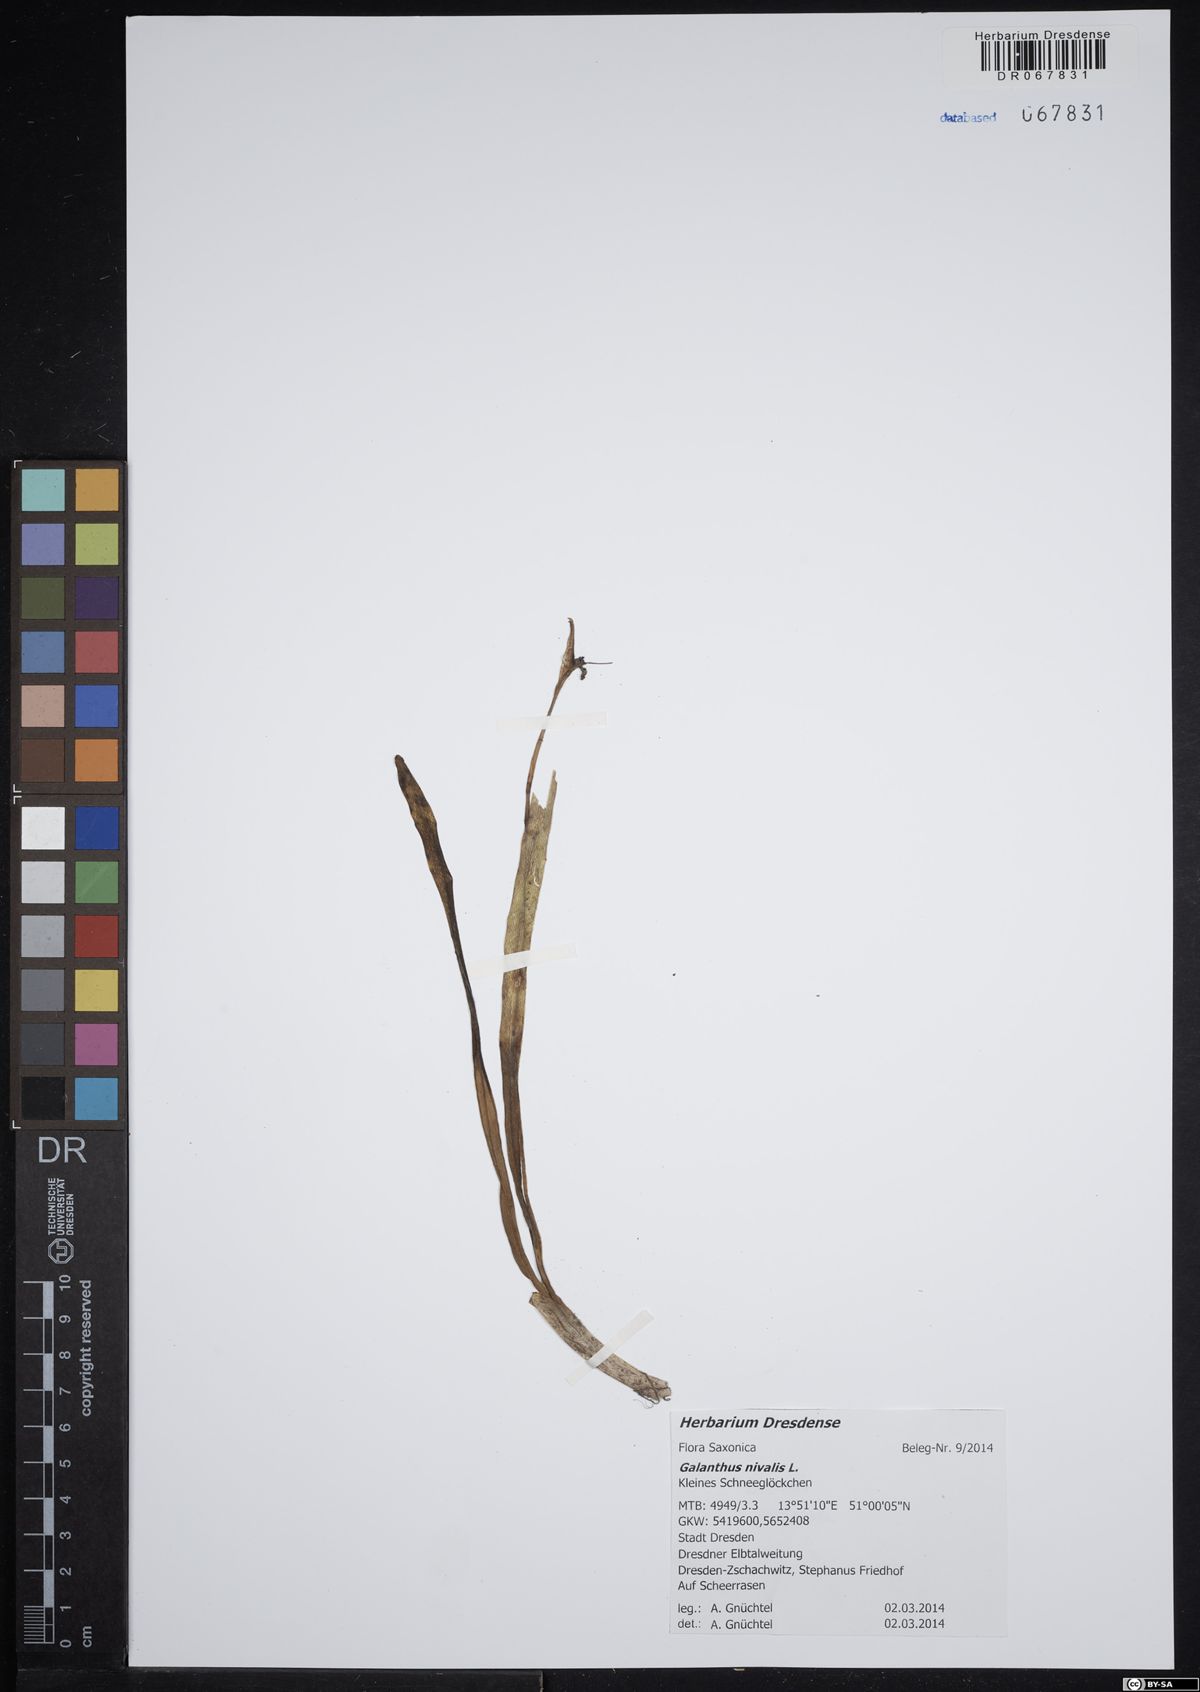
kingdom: Plantae
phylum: Tracheophyta
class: Liliopsida
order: Asparagales
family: Amaryllidaceae
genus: Galanthus
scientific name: Galanthus nivalis
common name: Snowdrop
